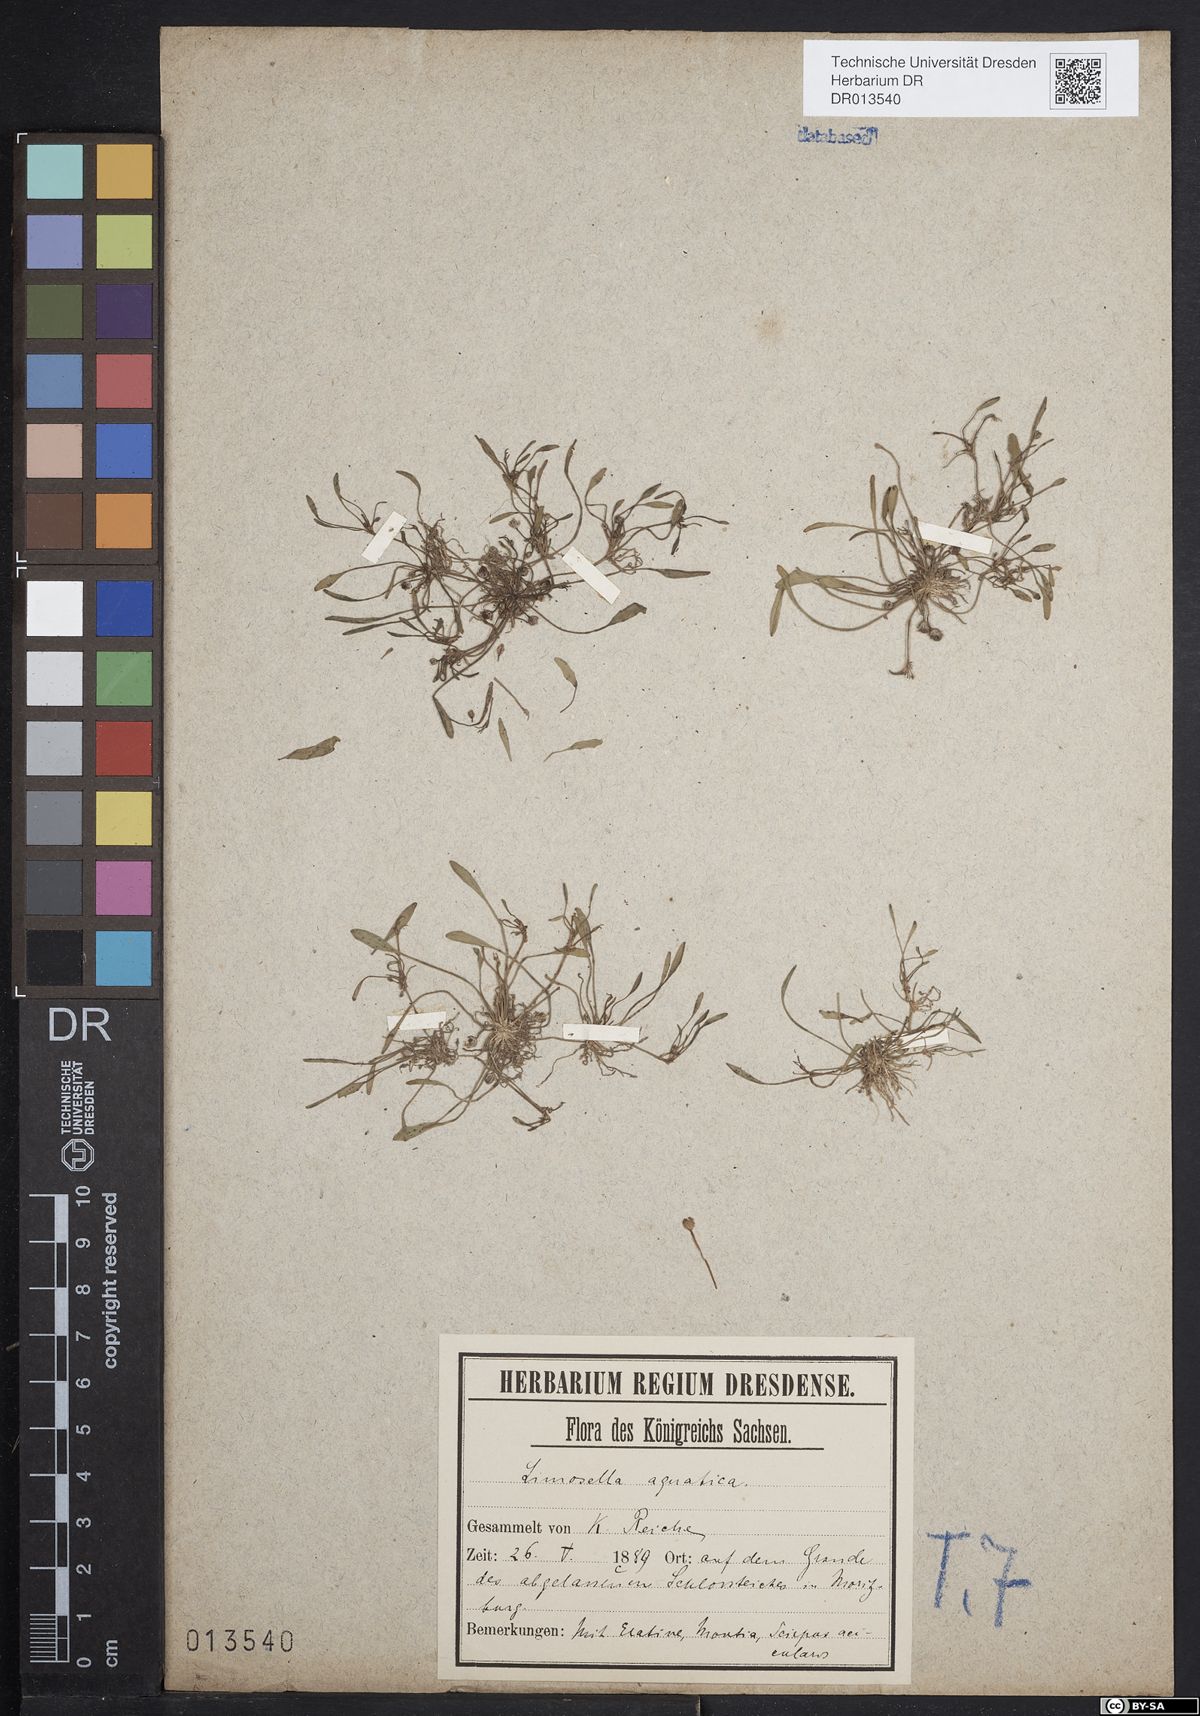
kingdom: Plantae
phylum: Tracheophyta
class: Magnoliopsida
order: Lamiales
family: Scrophulariaceae
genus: Limosella
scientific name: Limosella aquatica
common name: Mudwort
